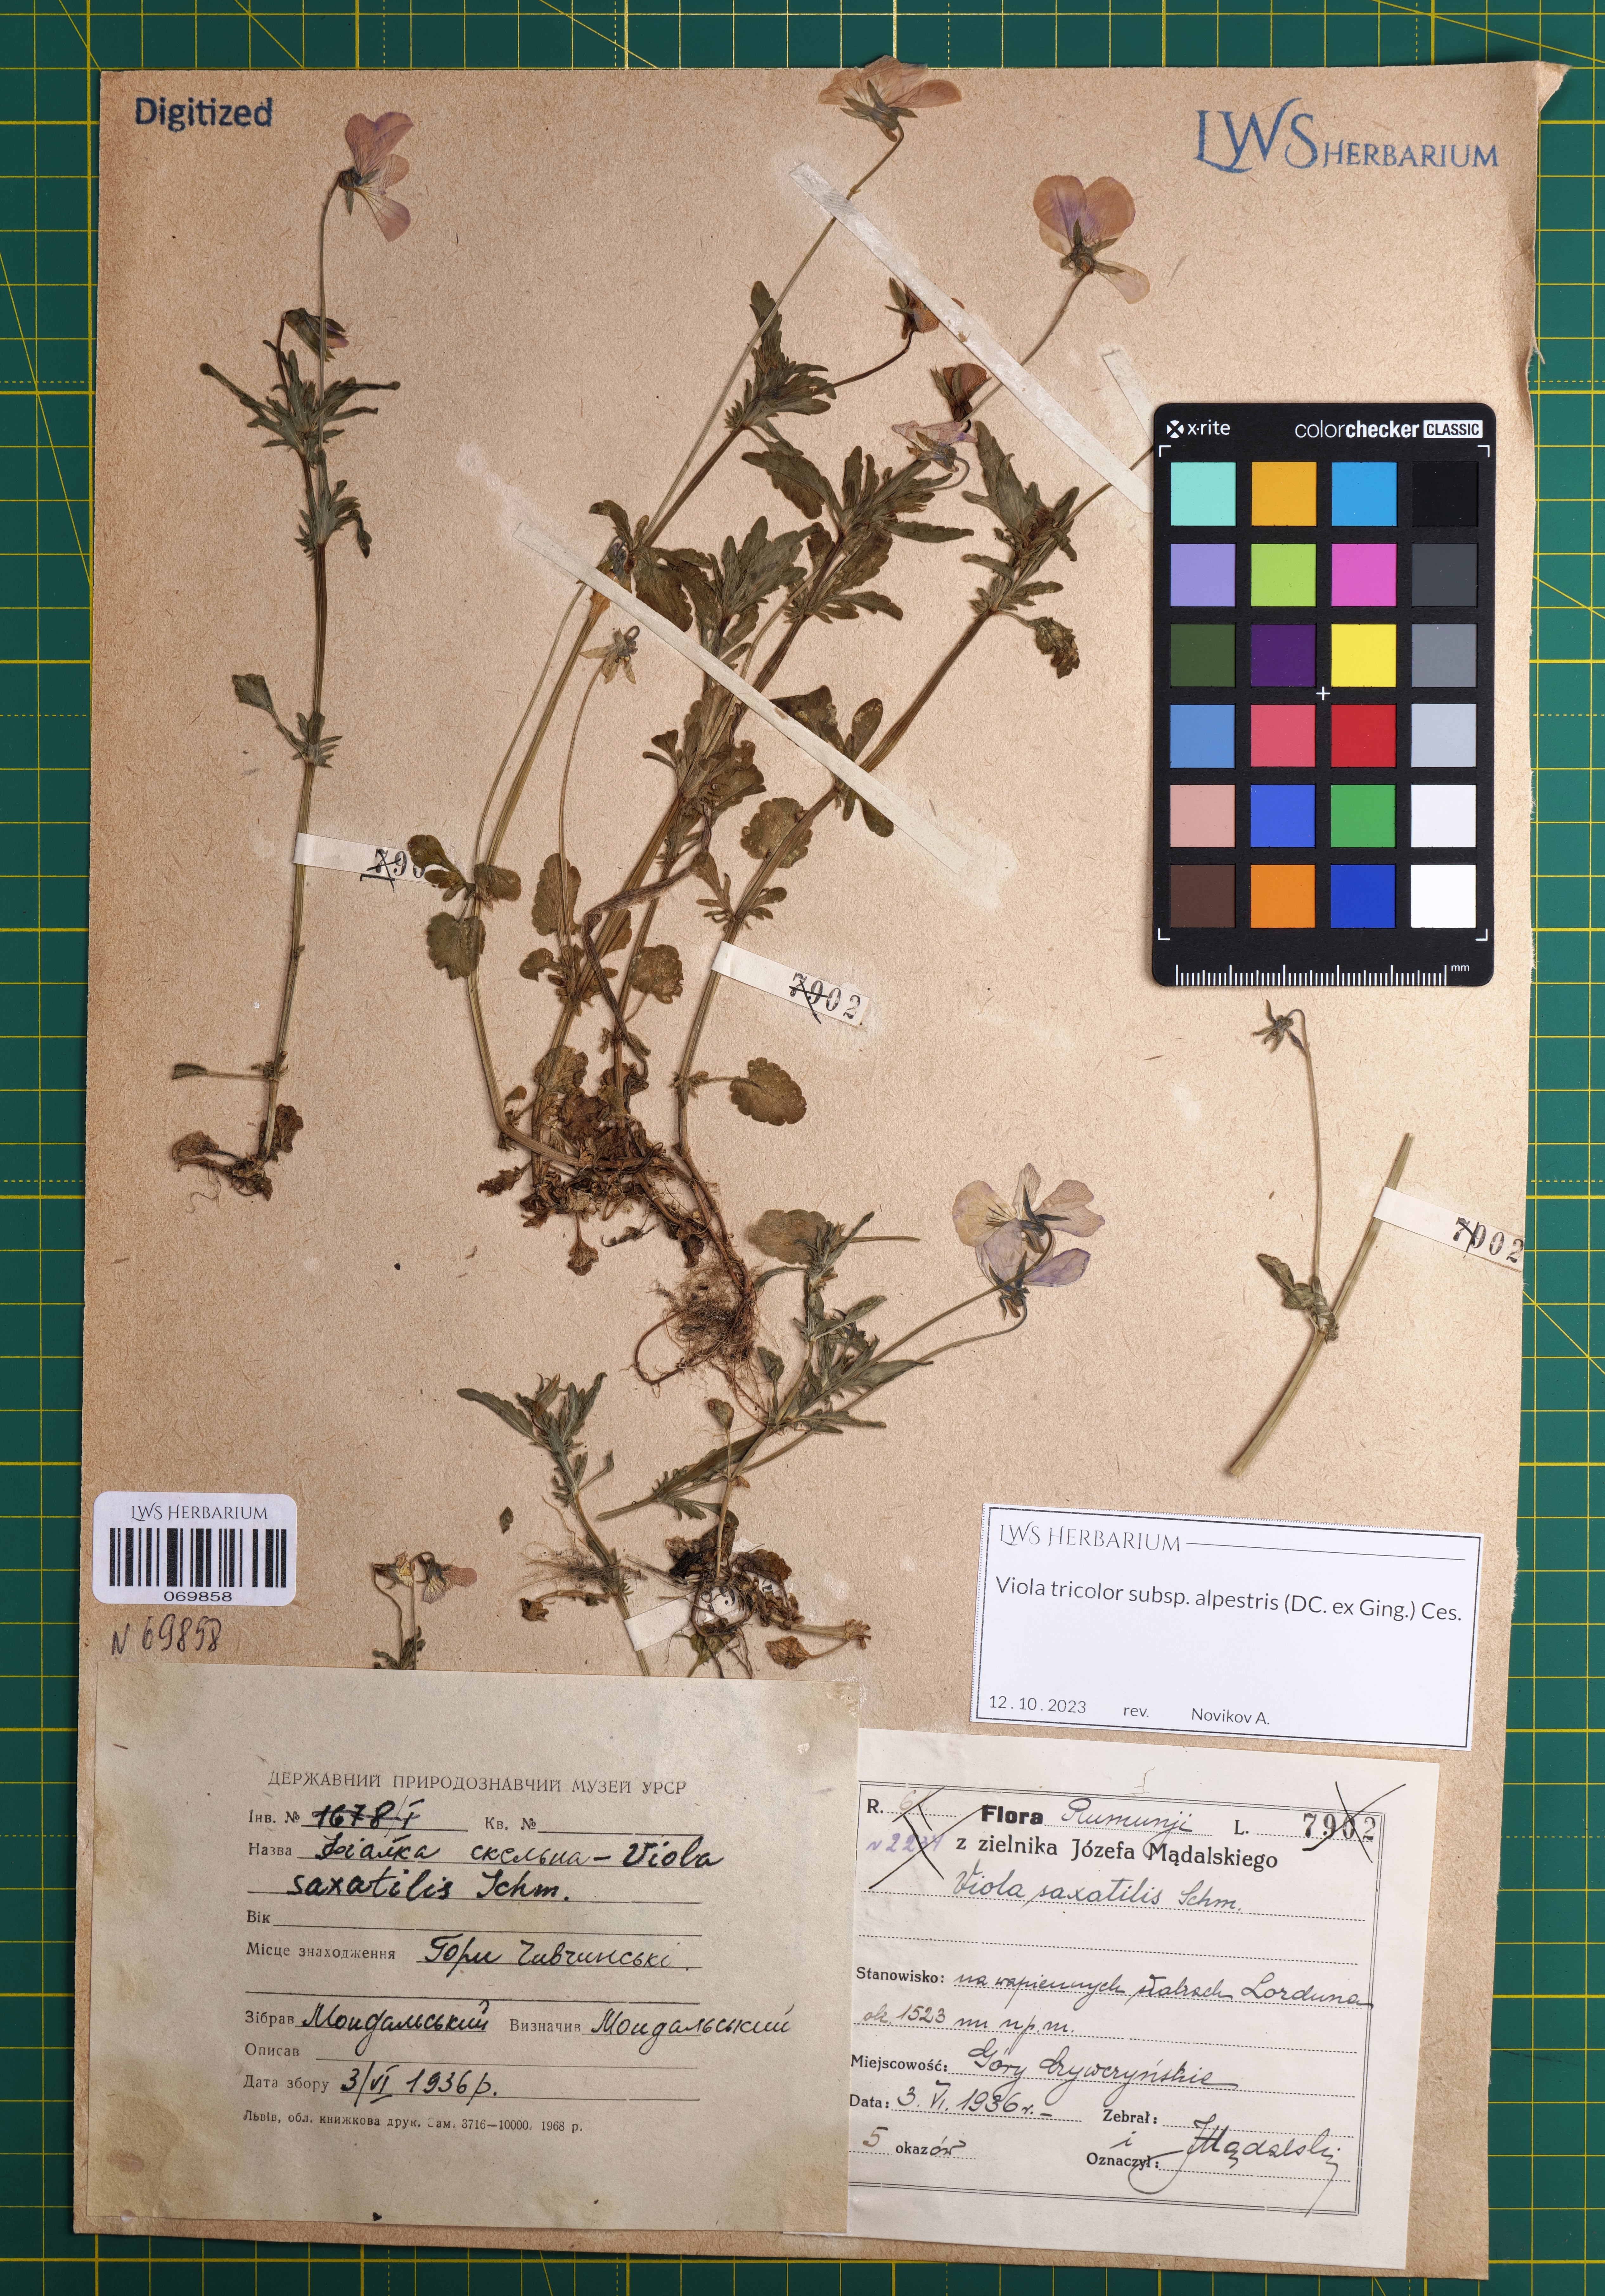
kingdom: Plantae
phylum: Tracheophyta
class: Magnoliopsida
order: Malpighiales
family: Violaceae
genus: Viola
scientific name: Viola tricolor
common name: Pansy
